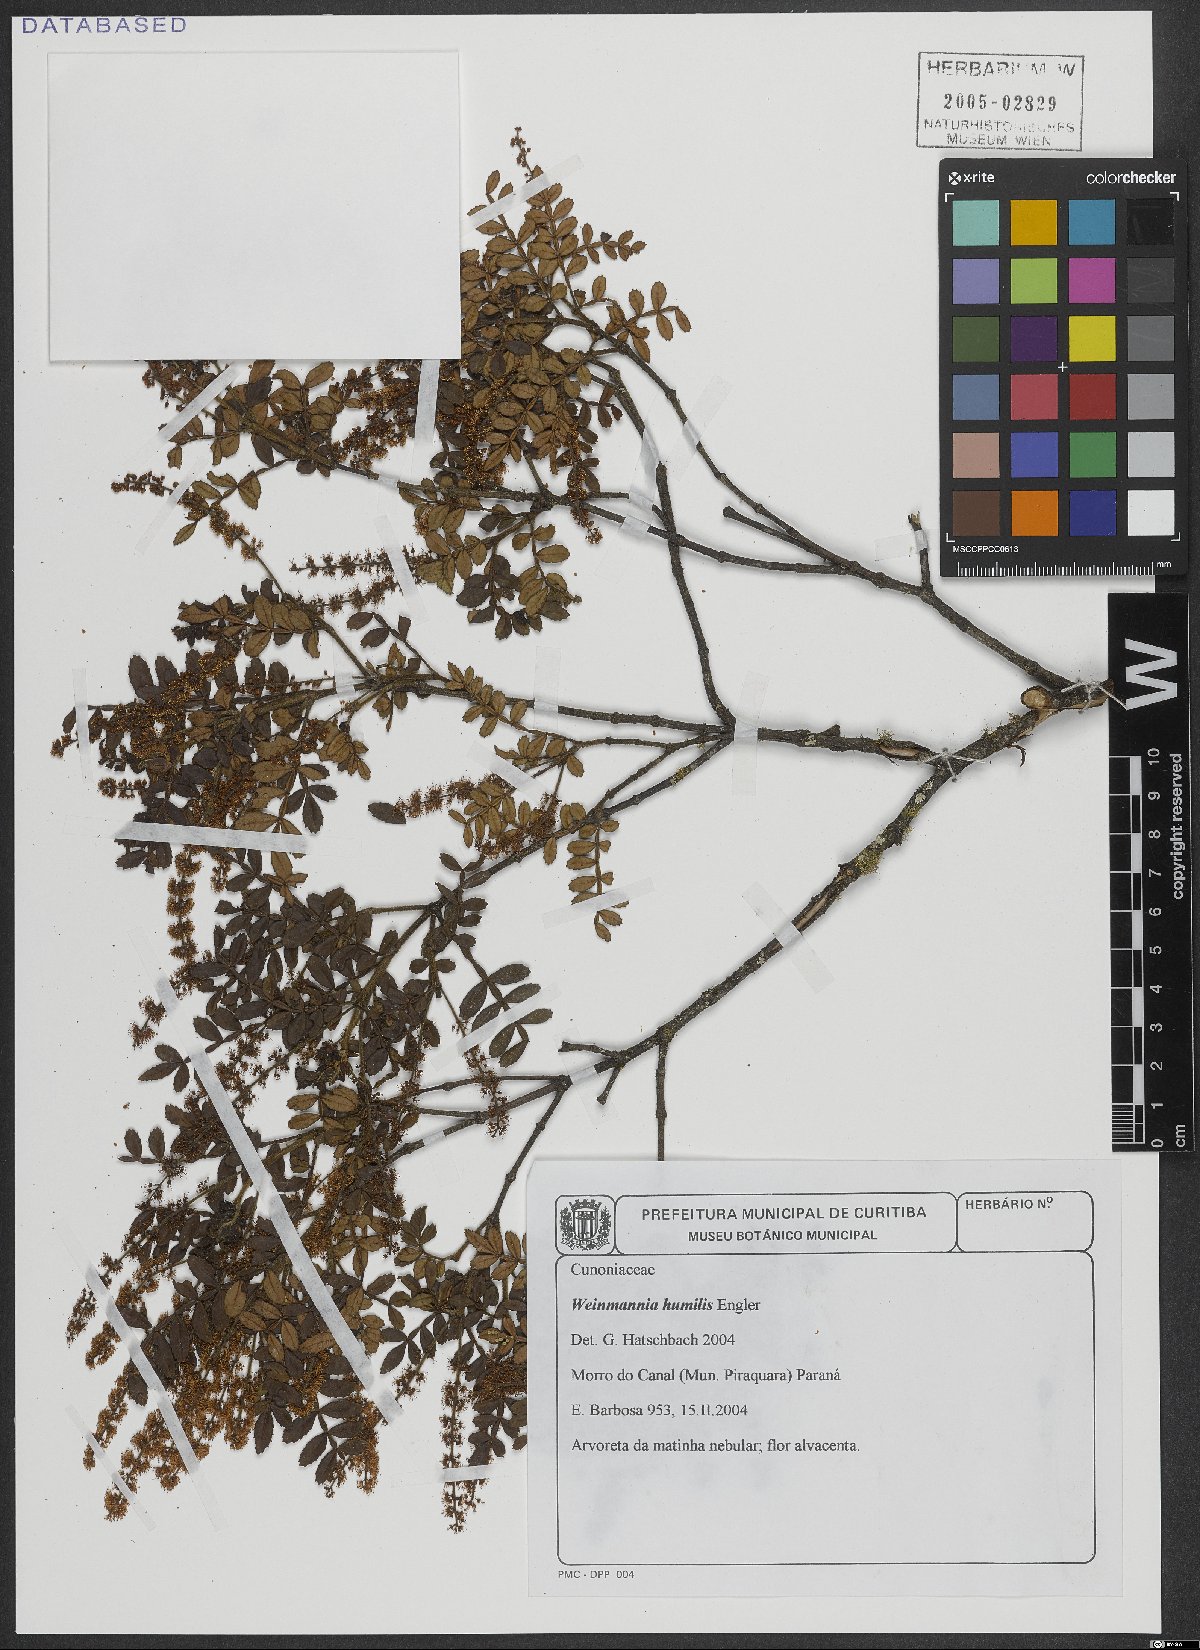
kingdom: Plantae
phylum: Tracheophyta
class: Magnoliopsida
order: Oxalidales
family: Cunoniaceae
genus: Weinmannia
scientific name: Weinmannia humilis
